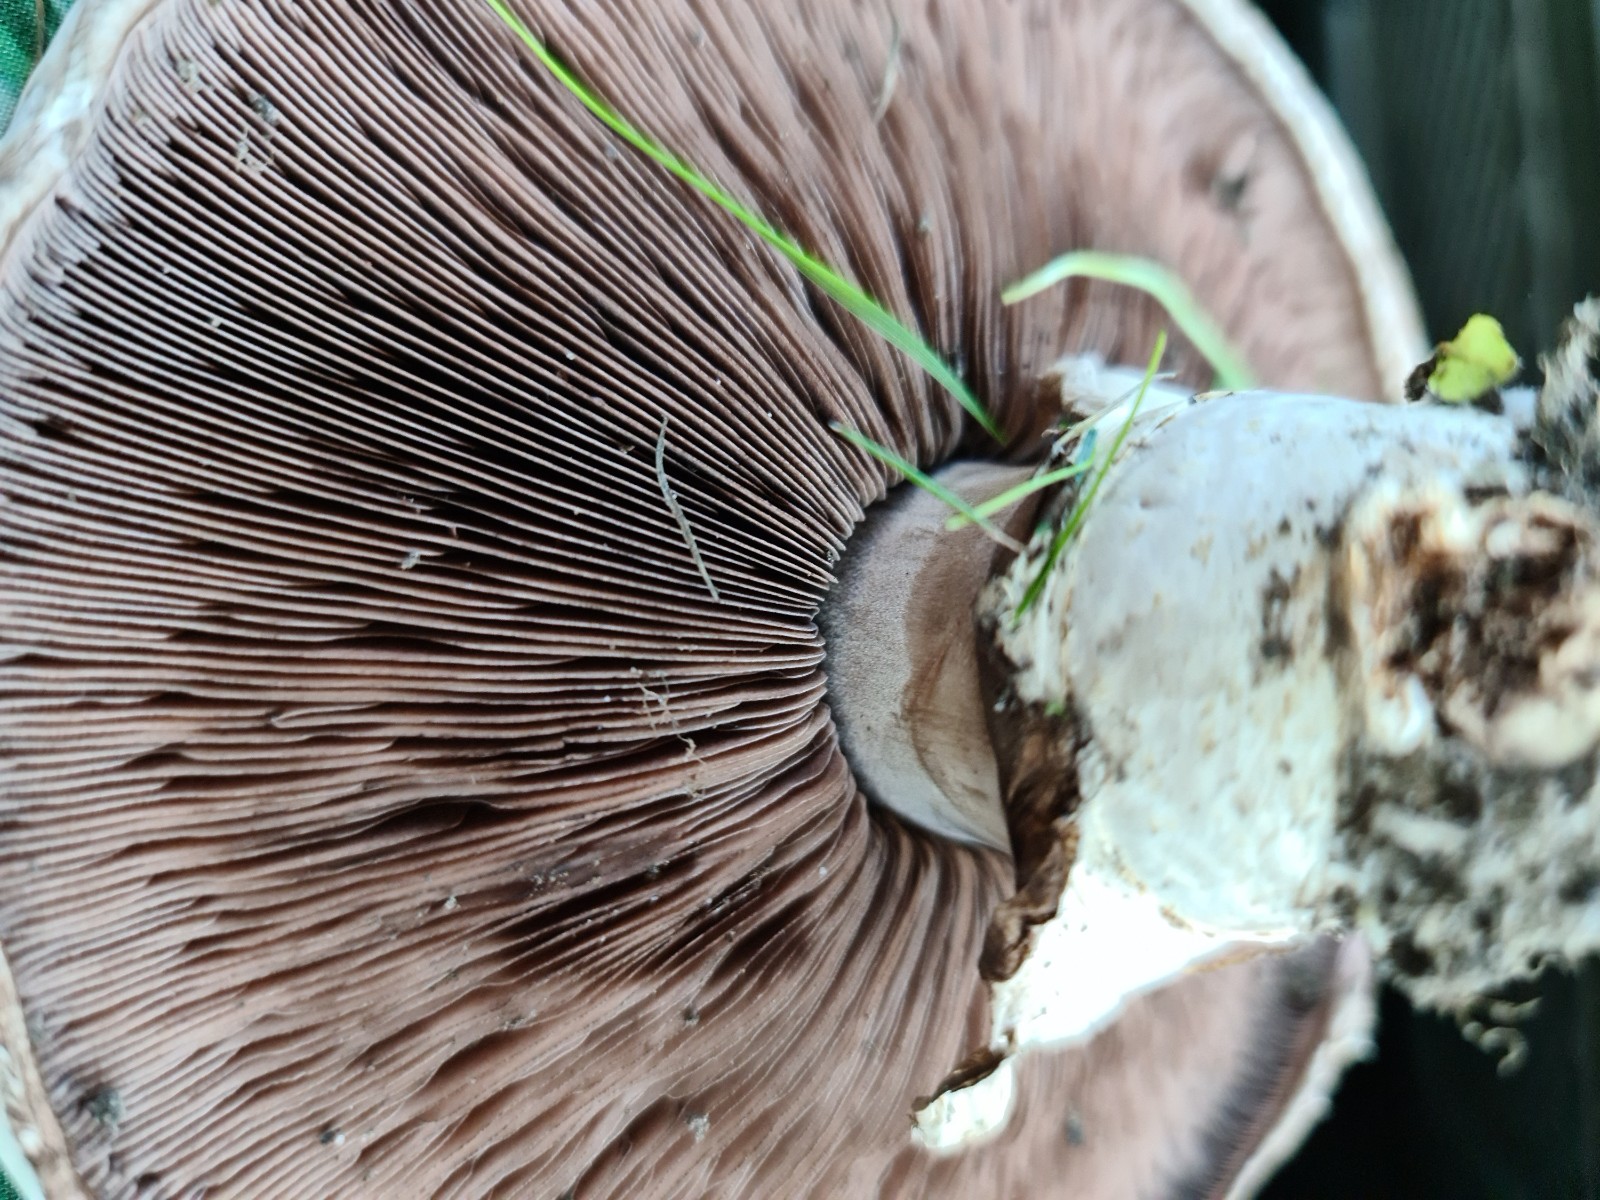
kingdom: Fungi
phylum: Basidiomycota
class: Agaricomycetes
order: Agaricales
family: Agaricaceae
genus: Agaricus
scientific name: Agaricus
